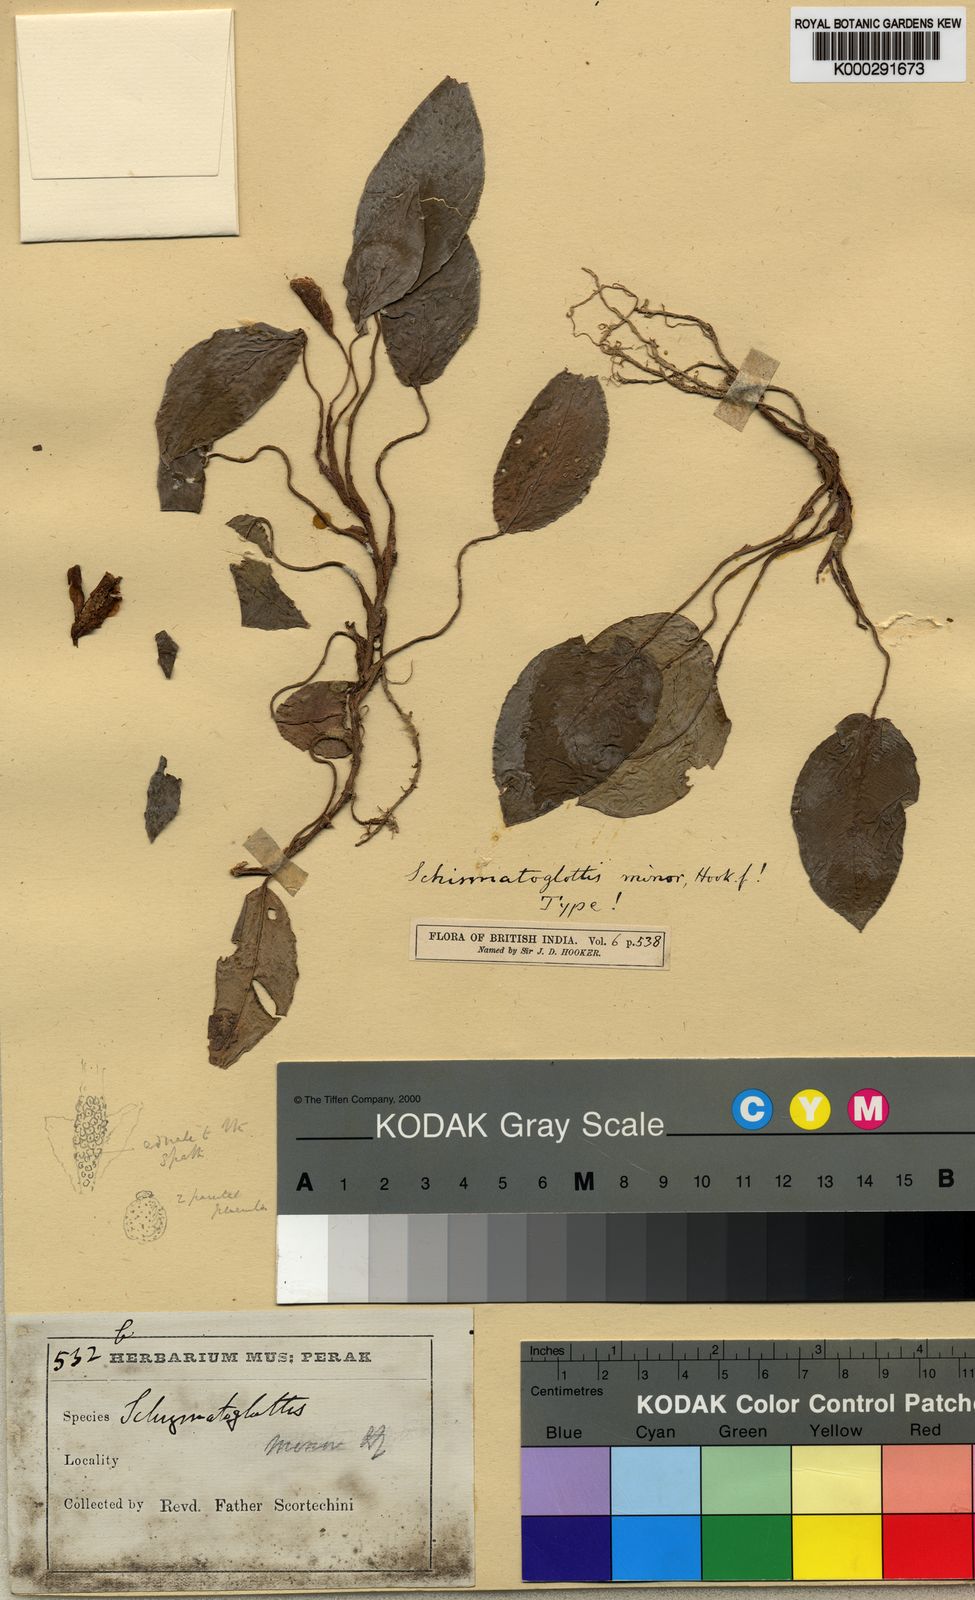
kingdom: Plantae
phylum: Tracheophyta
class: Liliopsida
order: Alismatales
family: Araceae
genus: Apoballis
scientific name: Apoballis brevipes
